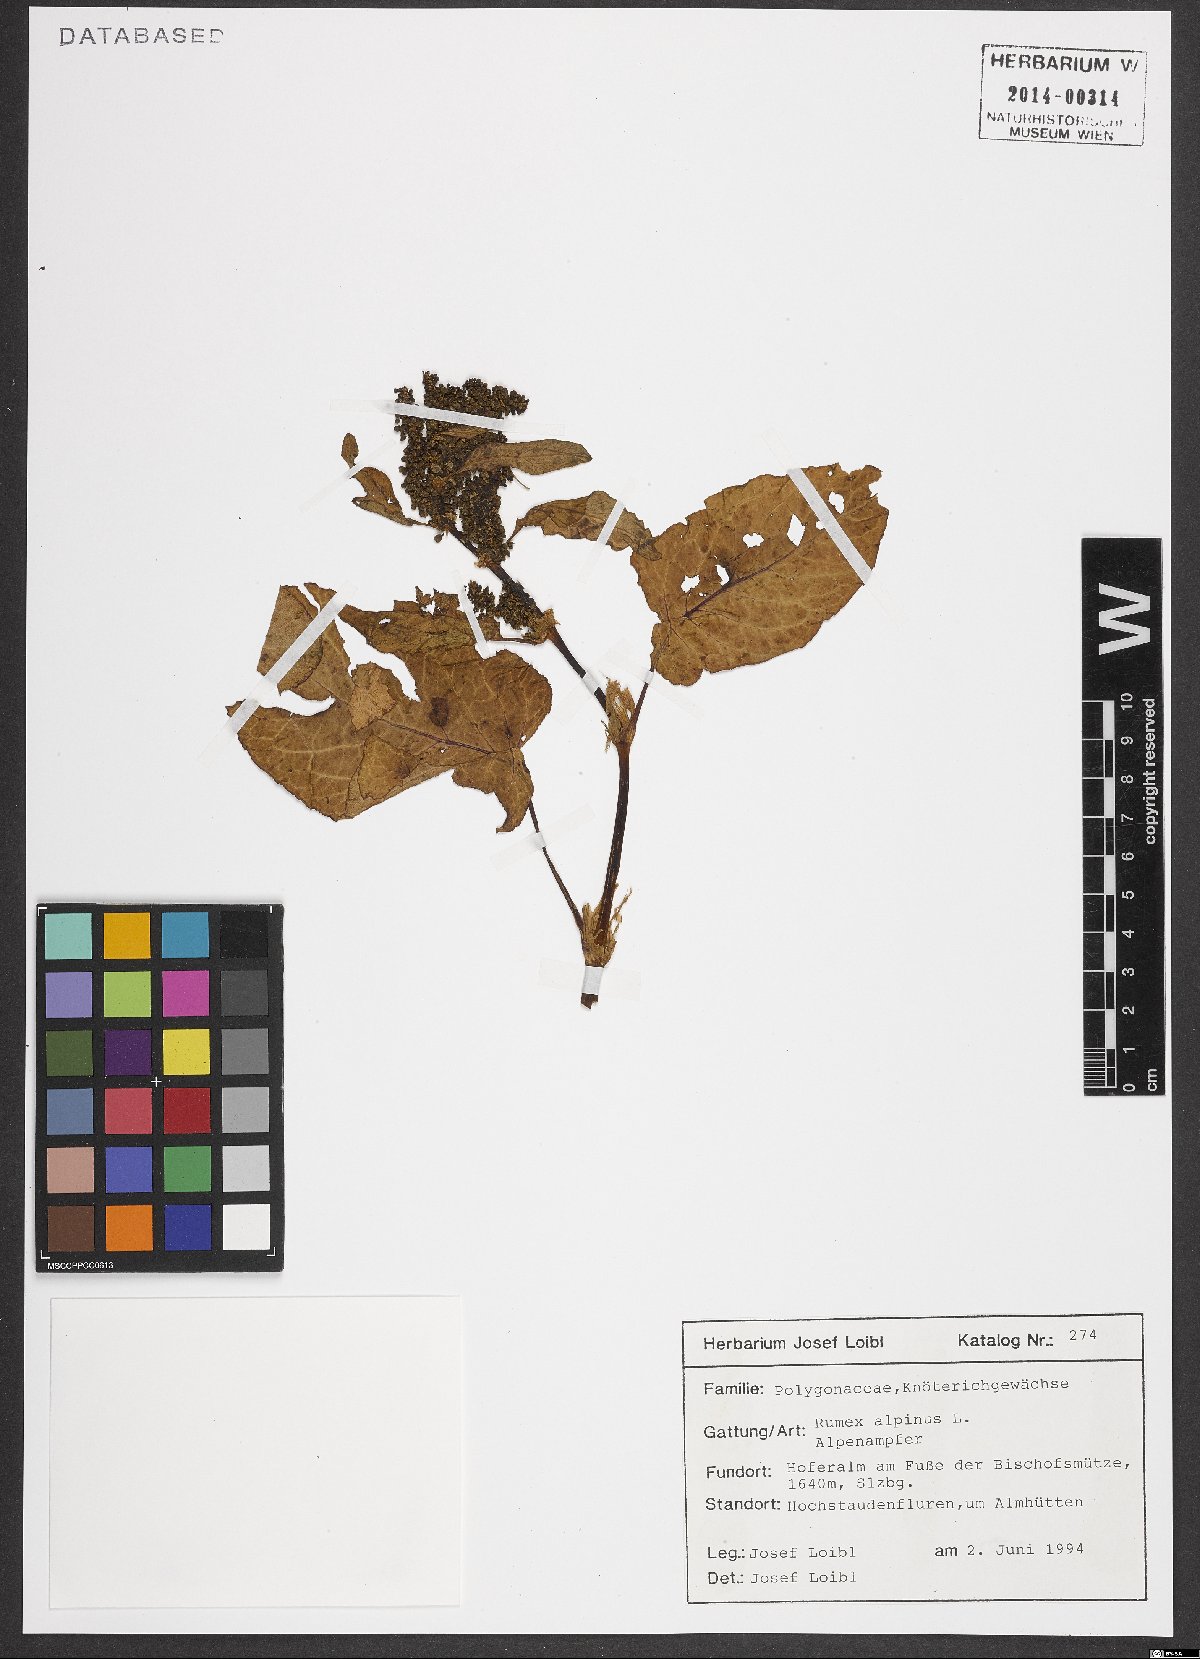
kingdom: Plantae
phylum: Tracheophyta
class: Magnoliopsida
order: Caryophyllales
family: Polygonaceae
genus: Rumex
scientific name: Rumex alpinus
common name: Alpine dock
